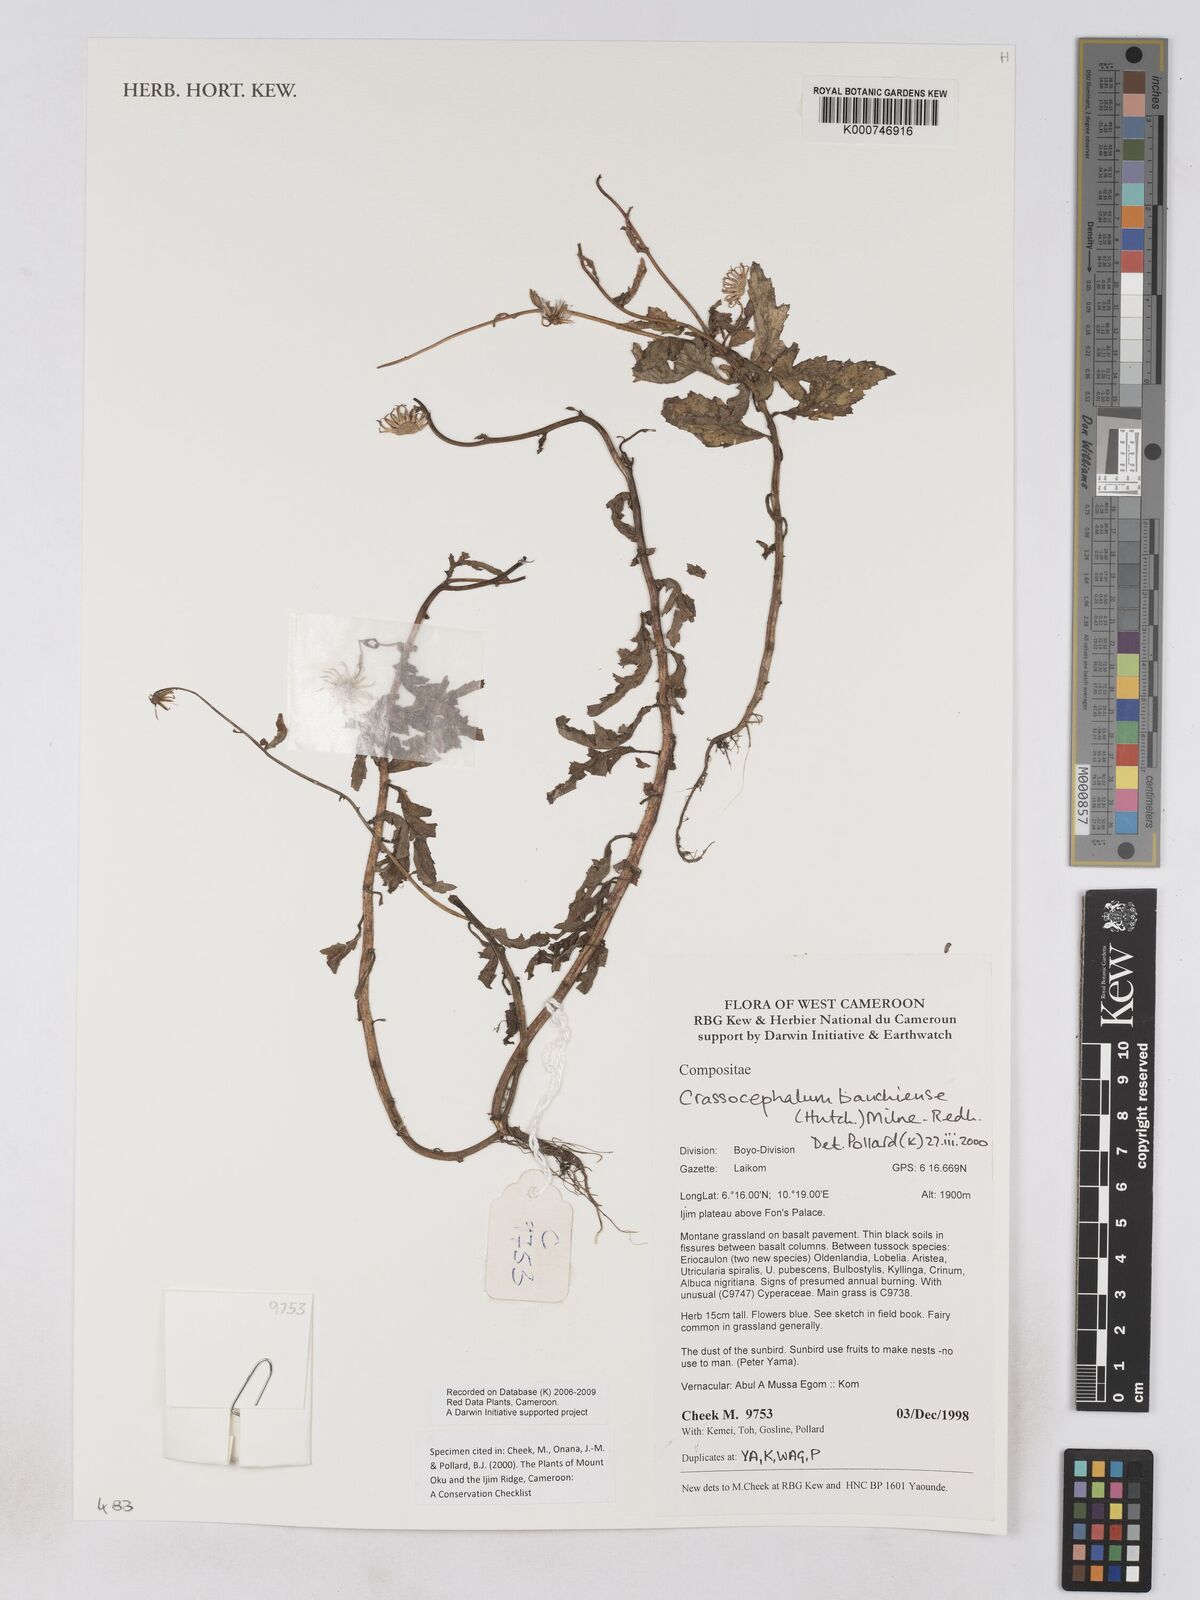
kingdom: Plantae
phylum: Tracheophyta
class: Magnoliopsida
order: Asterales
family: Asteraceae
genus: Crassocephalum
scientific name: Crassocephalum bauchiense
